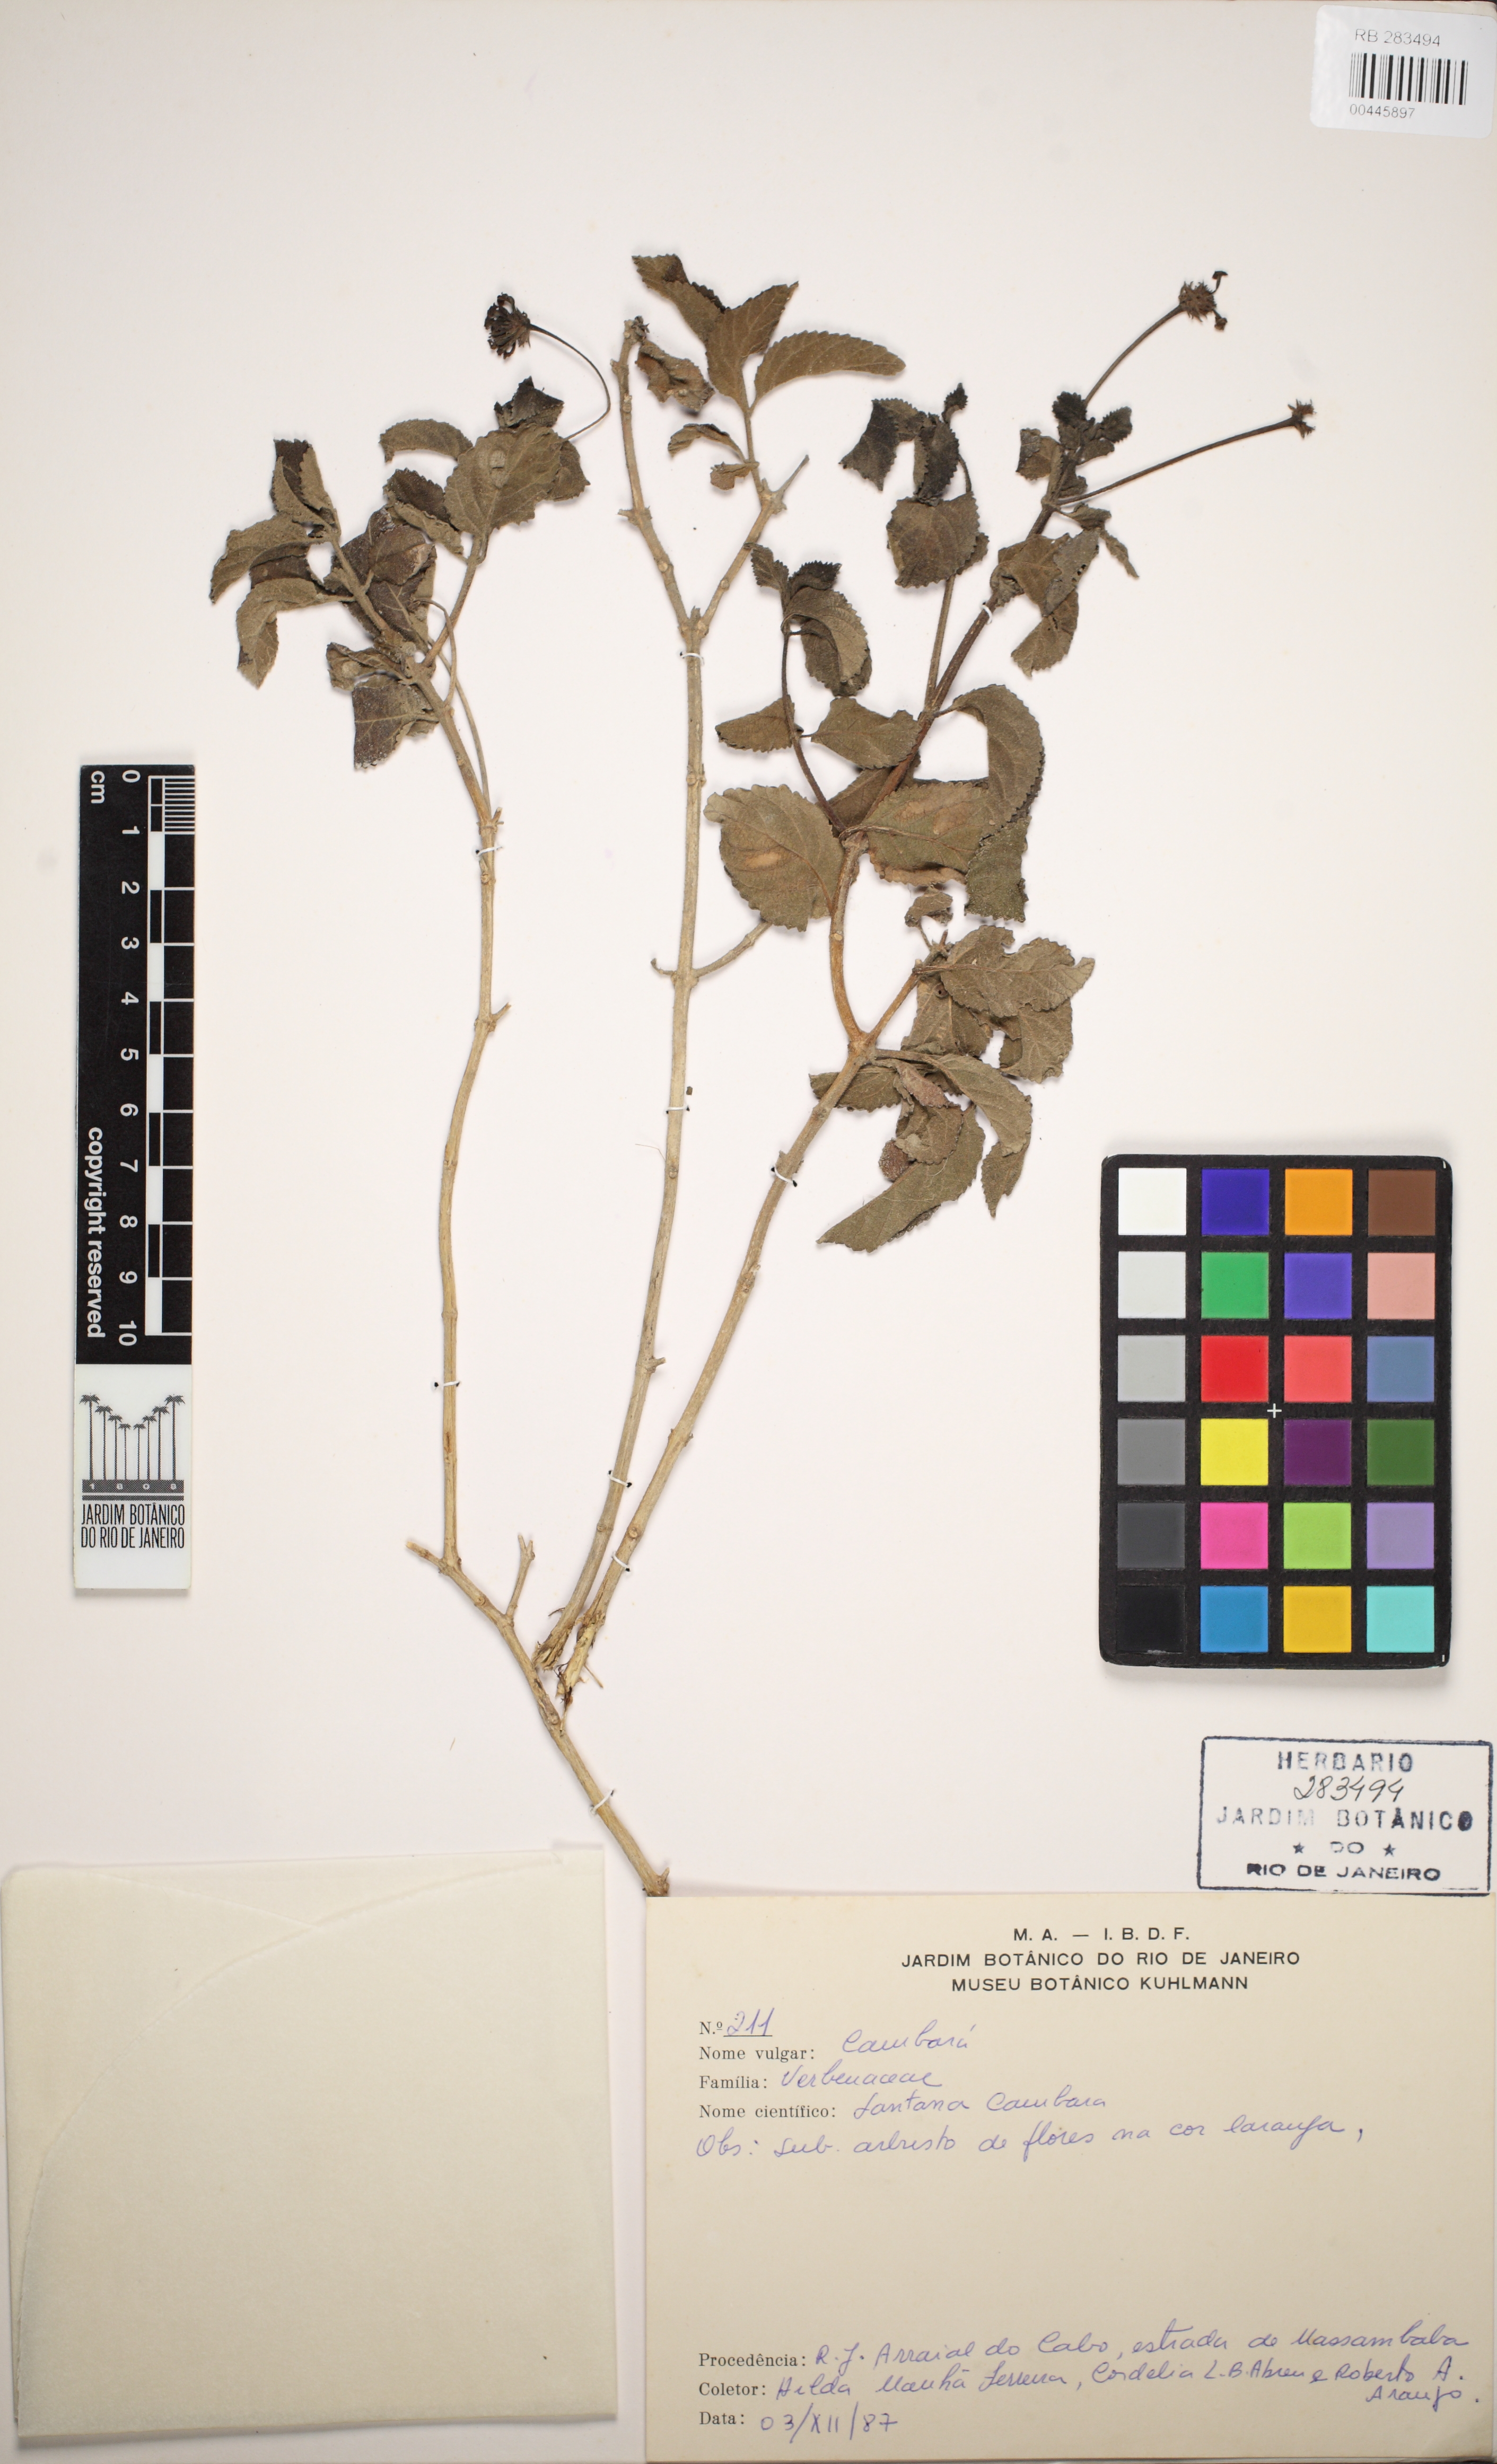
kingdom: Plantae
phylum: Tracheophyta
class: Magnoliopsida
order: Lamiales
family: Verbenaceae
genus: Lantana
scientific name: Lantana camara
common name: Lantana
